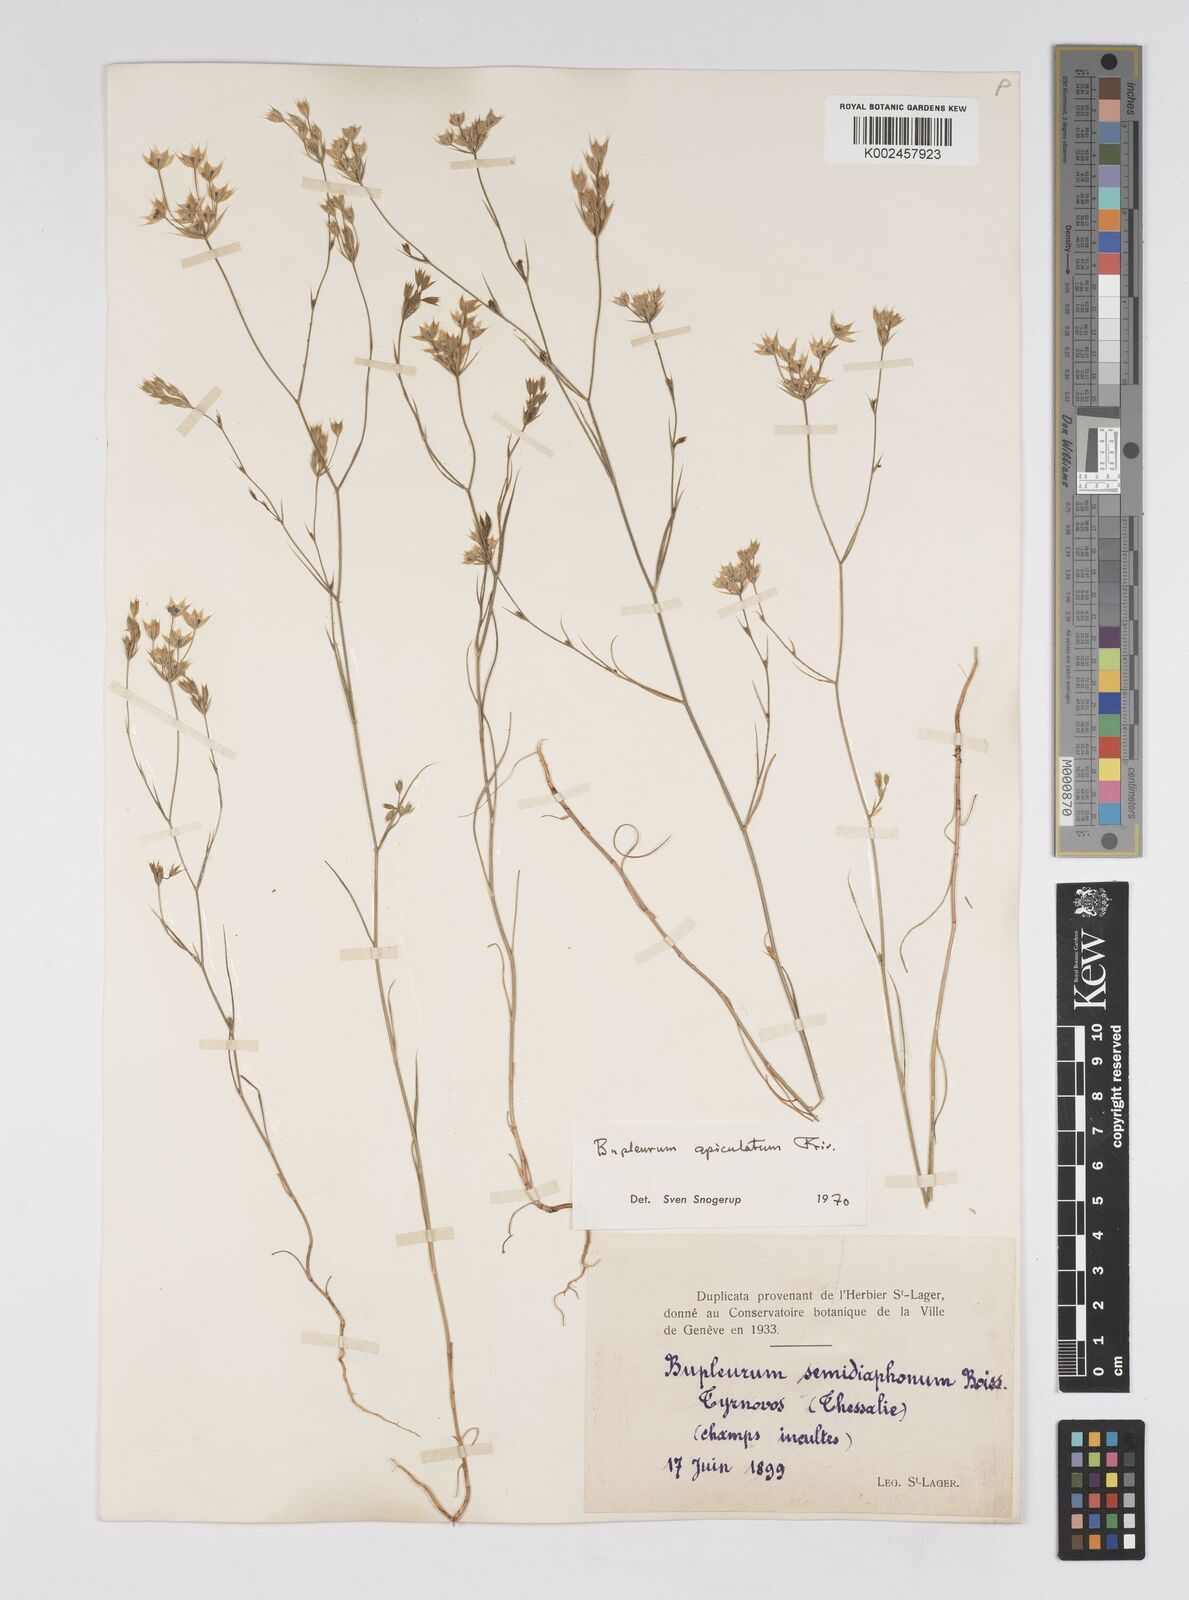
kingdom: Plantae
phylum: Tracheophyta
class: Magnoliopsida
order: Apiales
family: Apiaceae
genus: Bupleurum
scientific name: Bupleurum apiculatum
